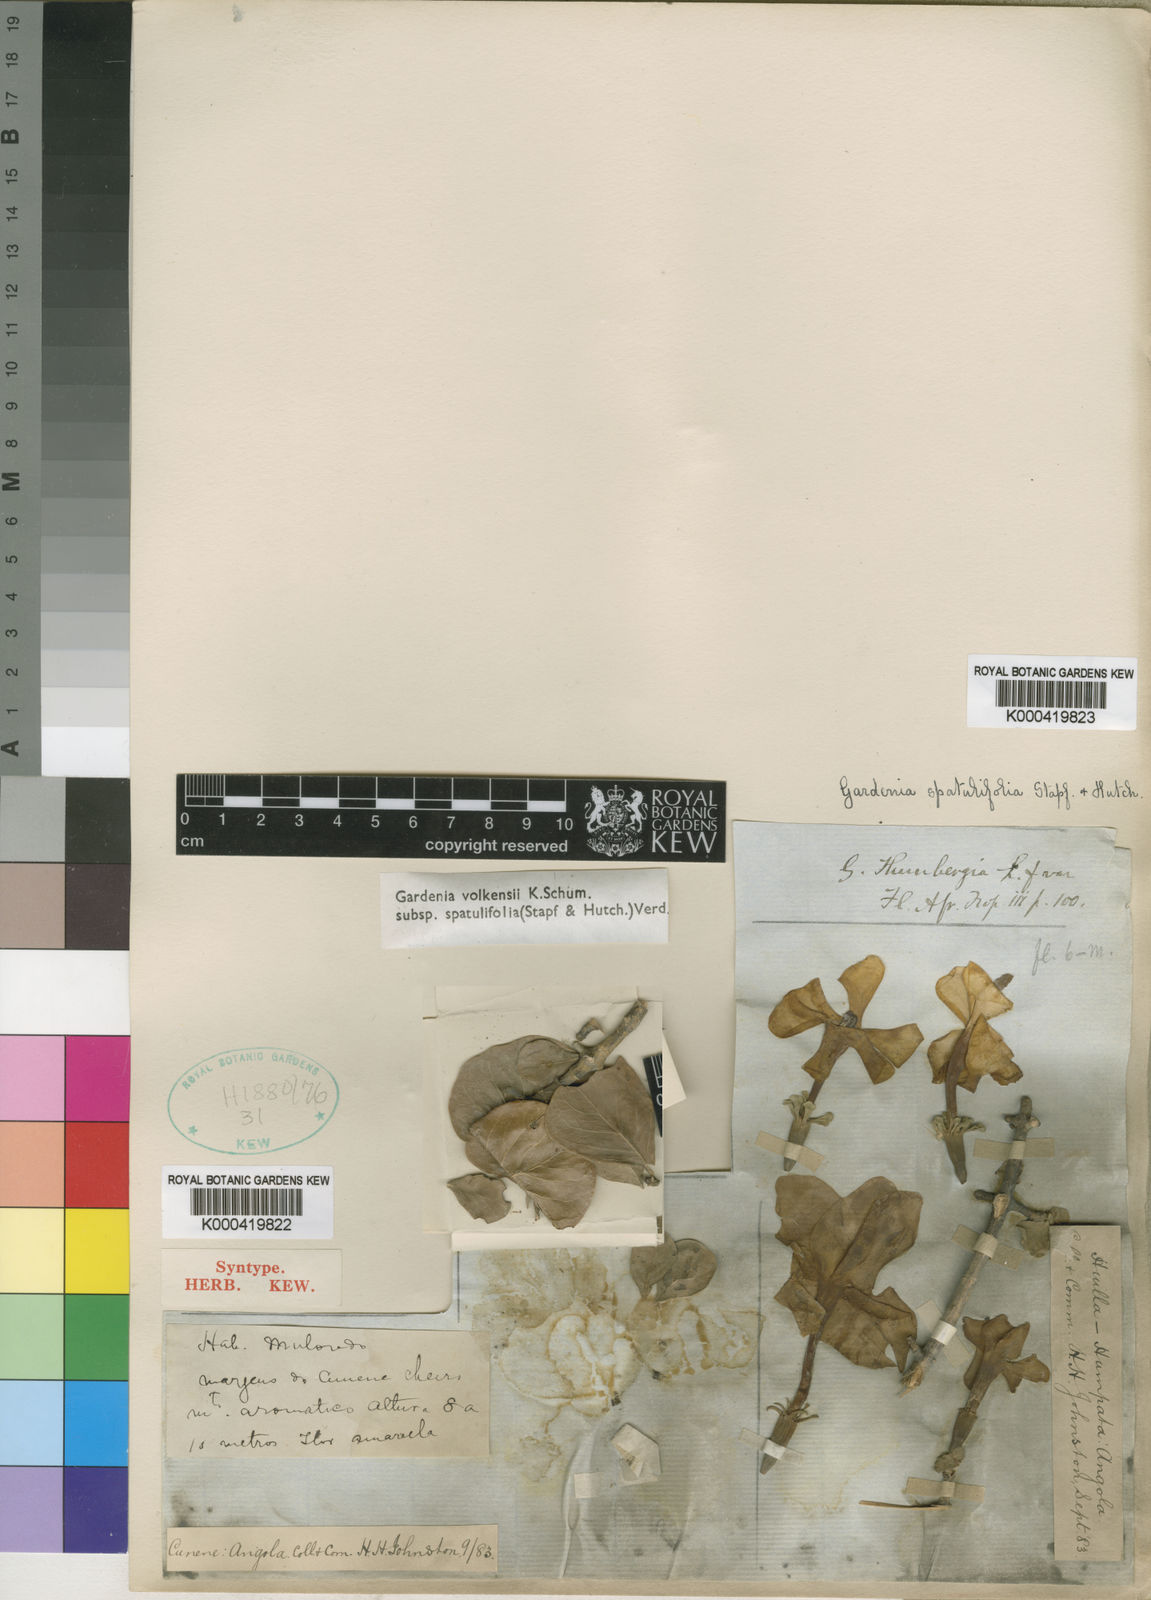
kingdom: Plantae
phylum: Tracheophyta
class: Magnoliopsida
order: Gentianales
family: Rubiaceae
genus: Gardenia
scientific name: Gardenia volkensii
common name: Common gardenia
